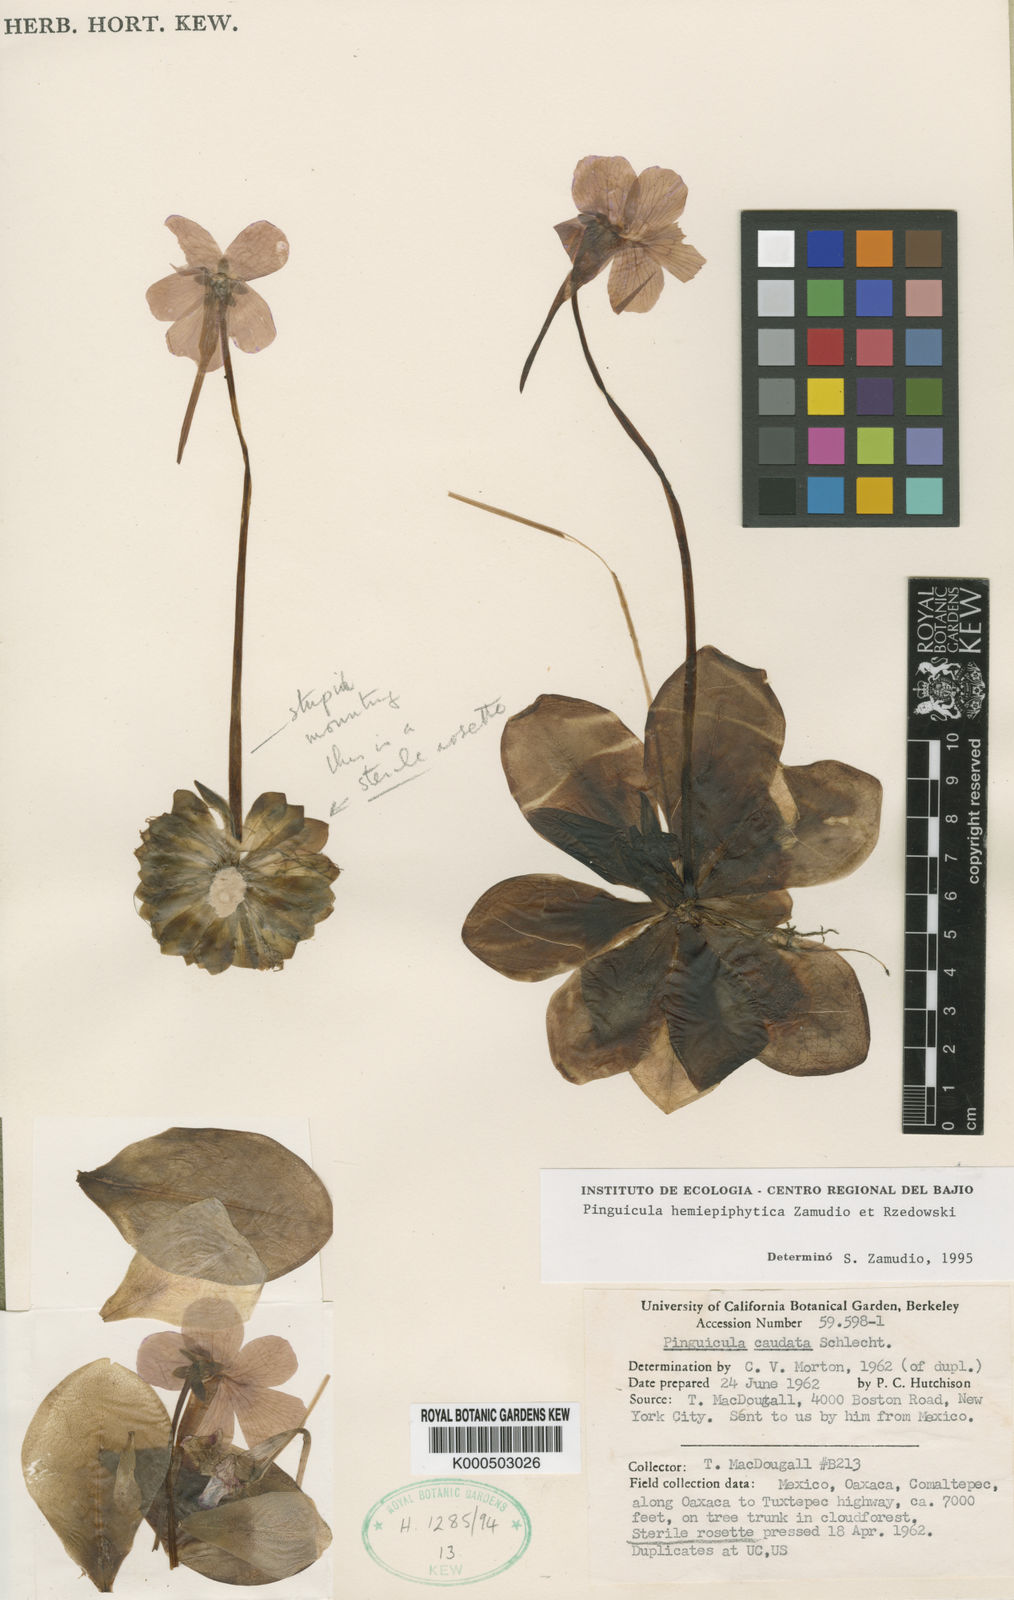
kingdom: Plantae
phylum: Tracheophyta
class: Magnoliopsida
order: Lamiales
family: Lentibulariaceae
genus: Pinguicula
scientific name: Pinguicula hemiepiphytica
